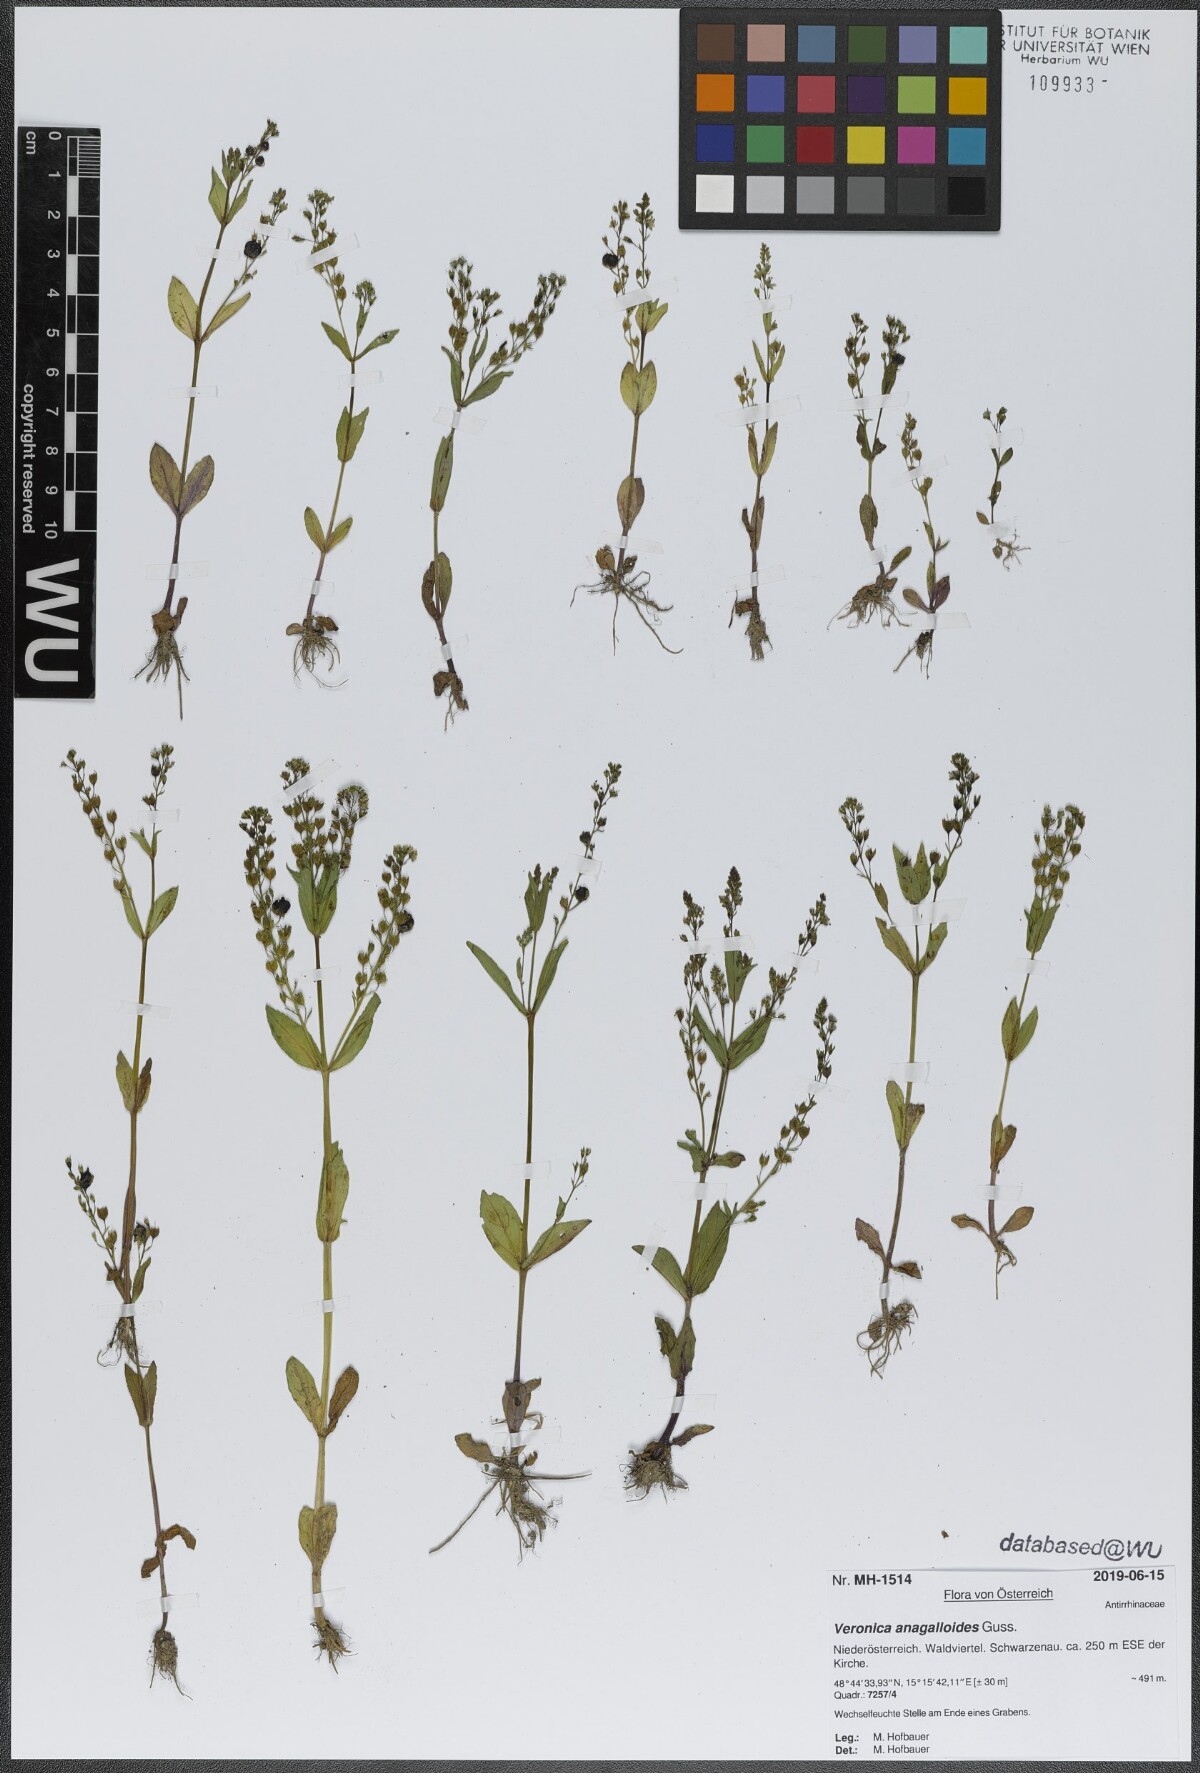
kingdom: Plantae
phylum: Tracheophyta
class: Magnoliopsida
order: Lamiales
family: Plantaginaceae
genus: Veronica
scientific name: Veronica anagalloides
